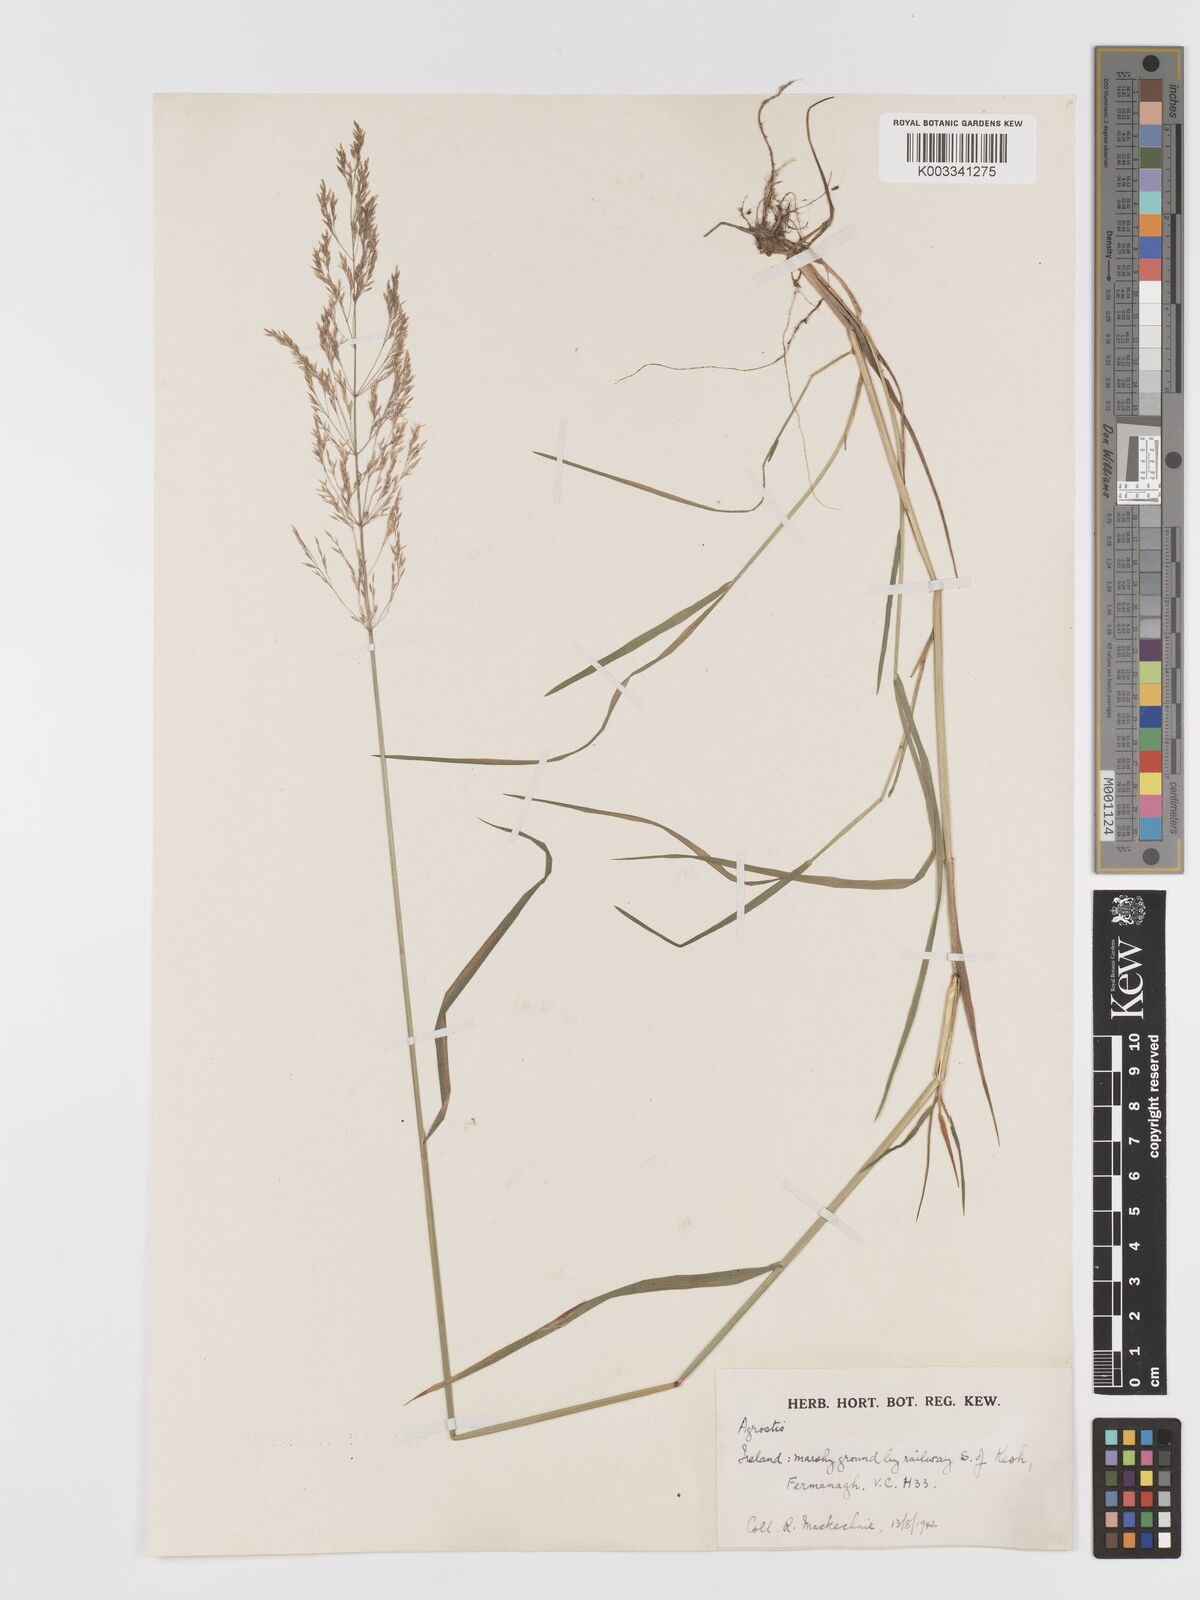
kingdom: Plantae
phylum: Tracheophyta
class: Liliopsida
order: Poales
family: Poaceae
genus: Agrostis
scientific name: Agrostis gigantea
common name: Black bent
